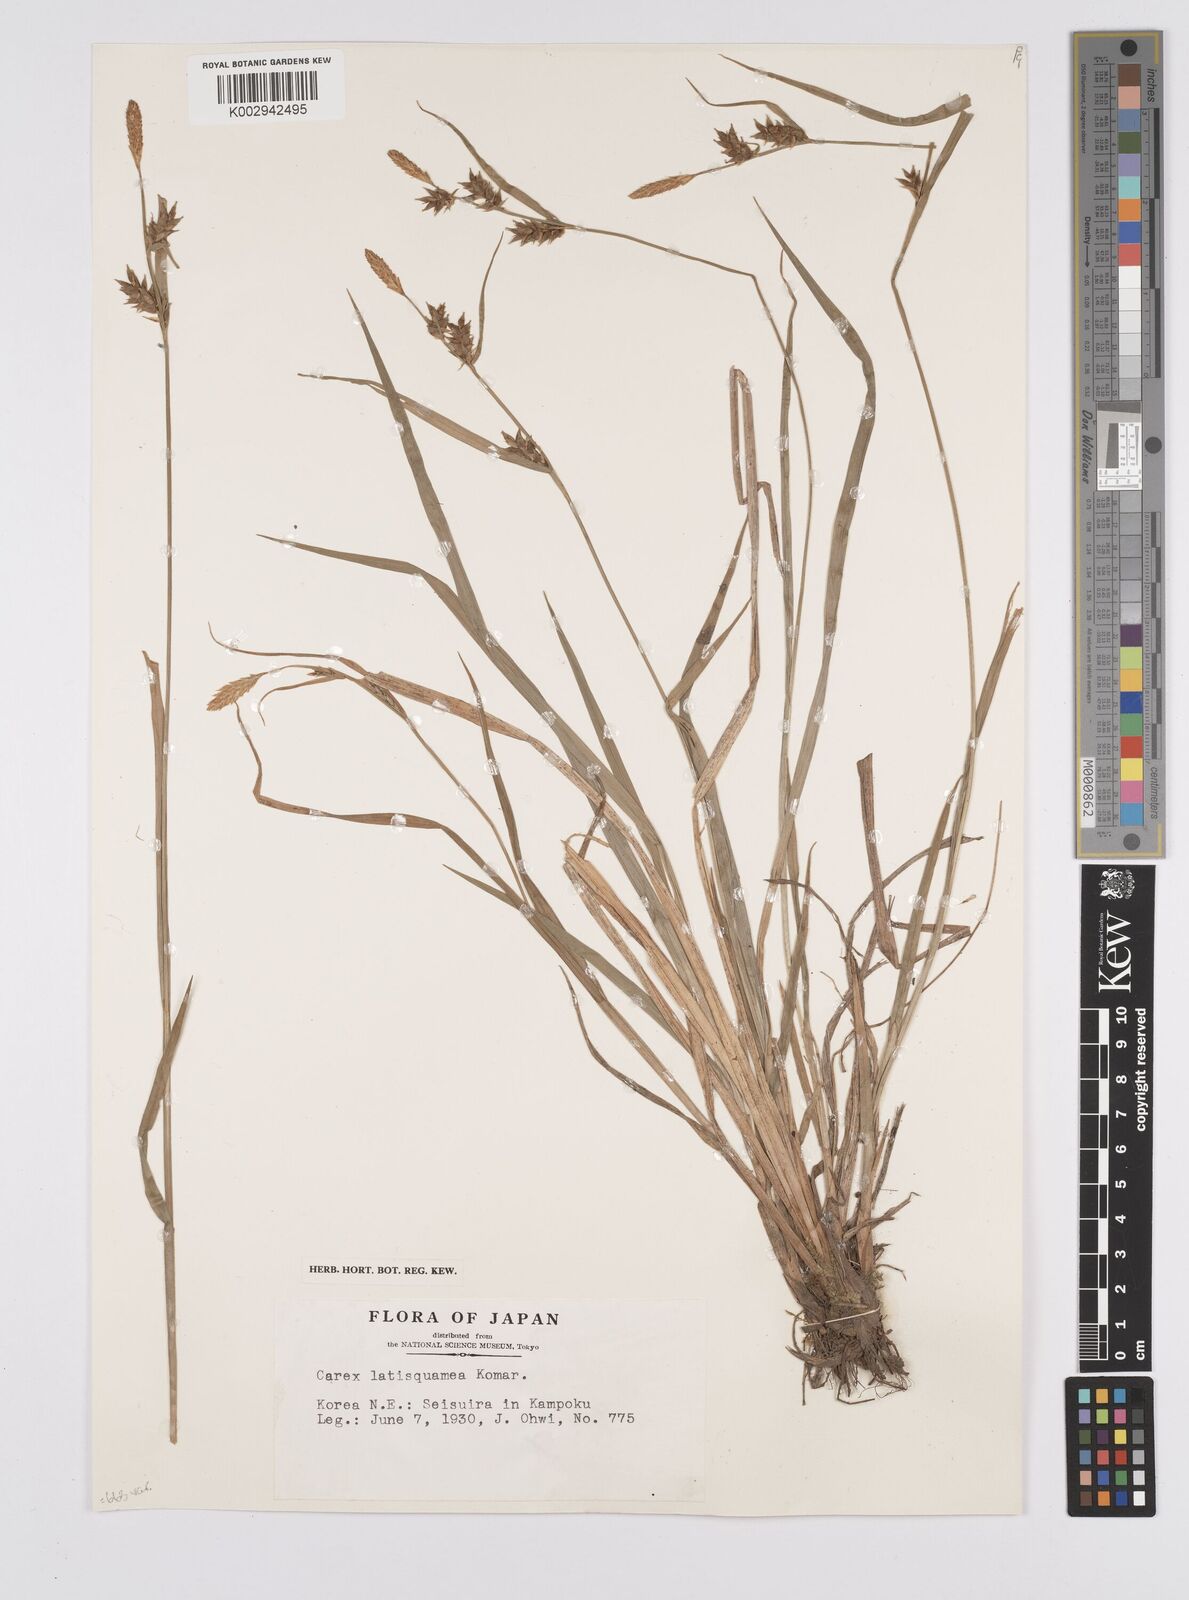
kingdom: Plantae
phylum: Tracheophyta
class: Liliopsida
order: Poales
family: Cyperaceae
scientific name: Cyperaceae
